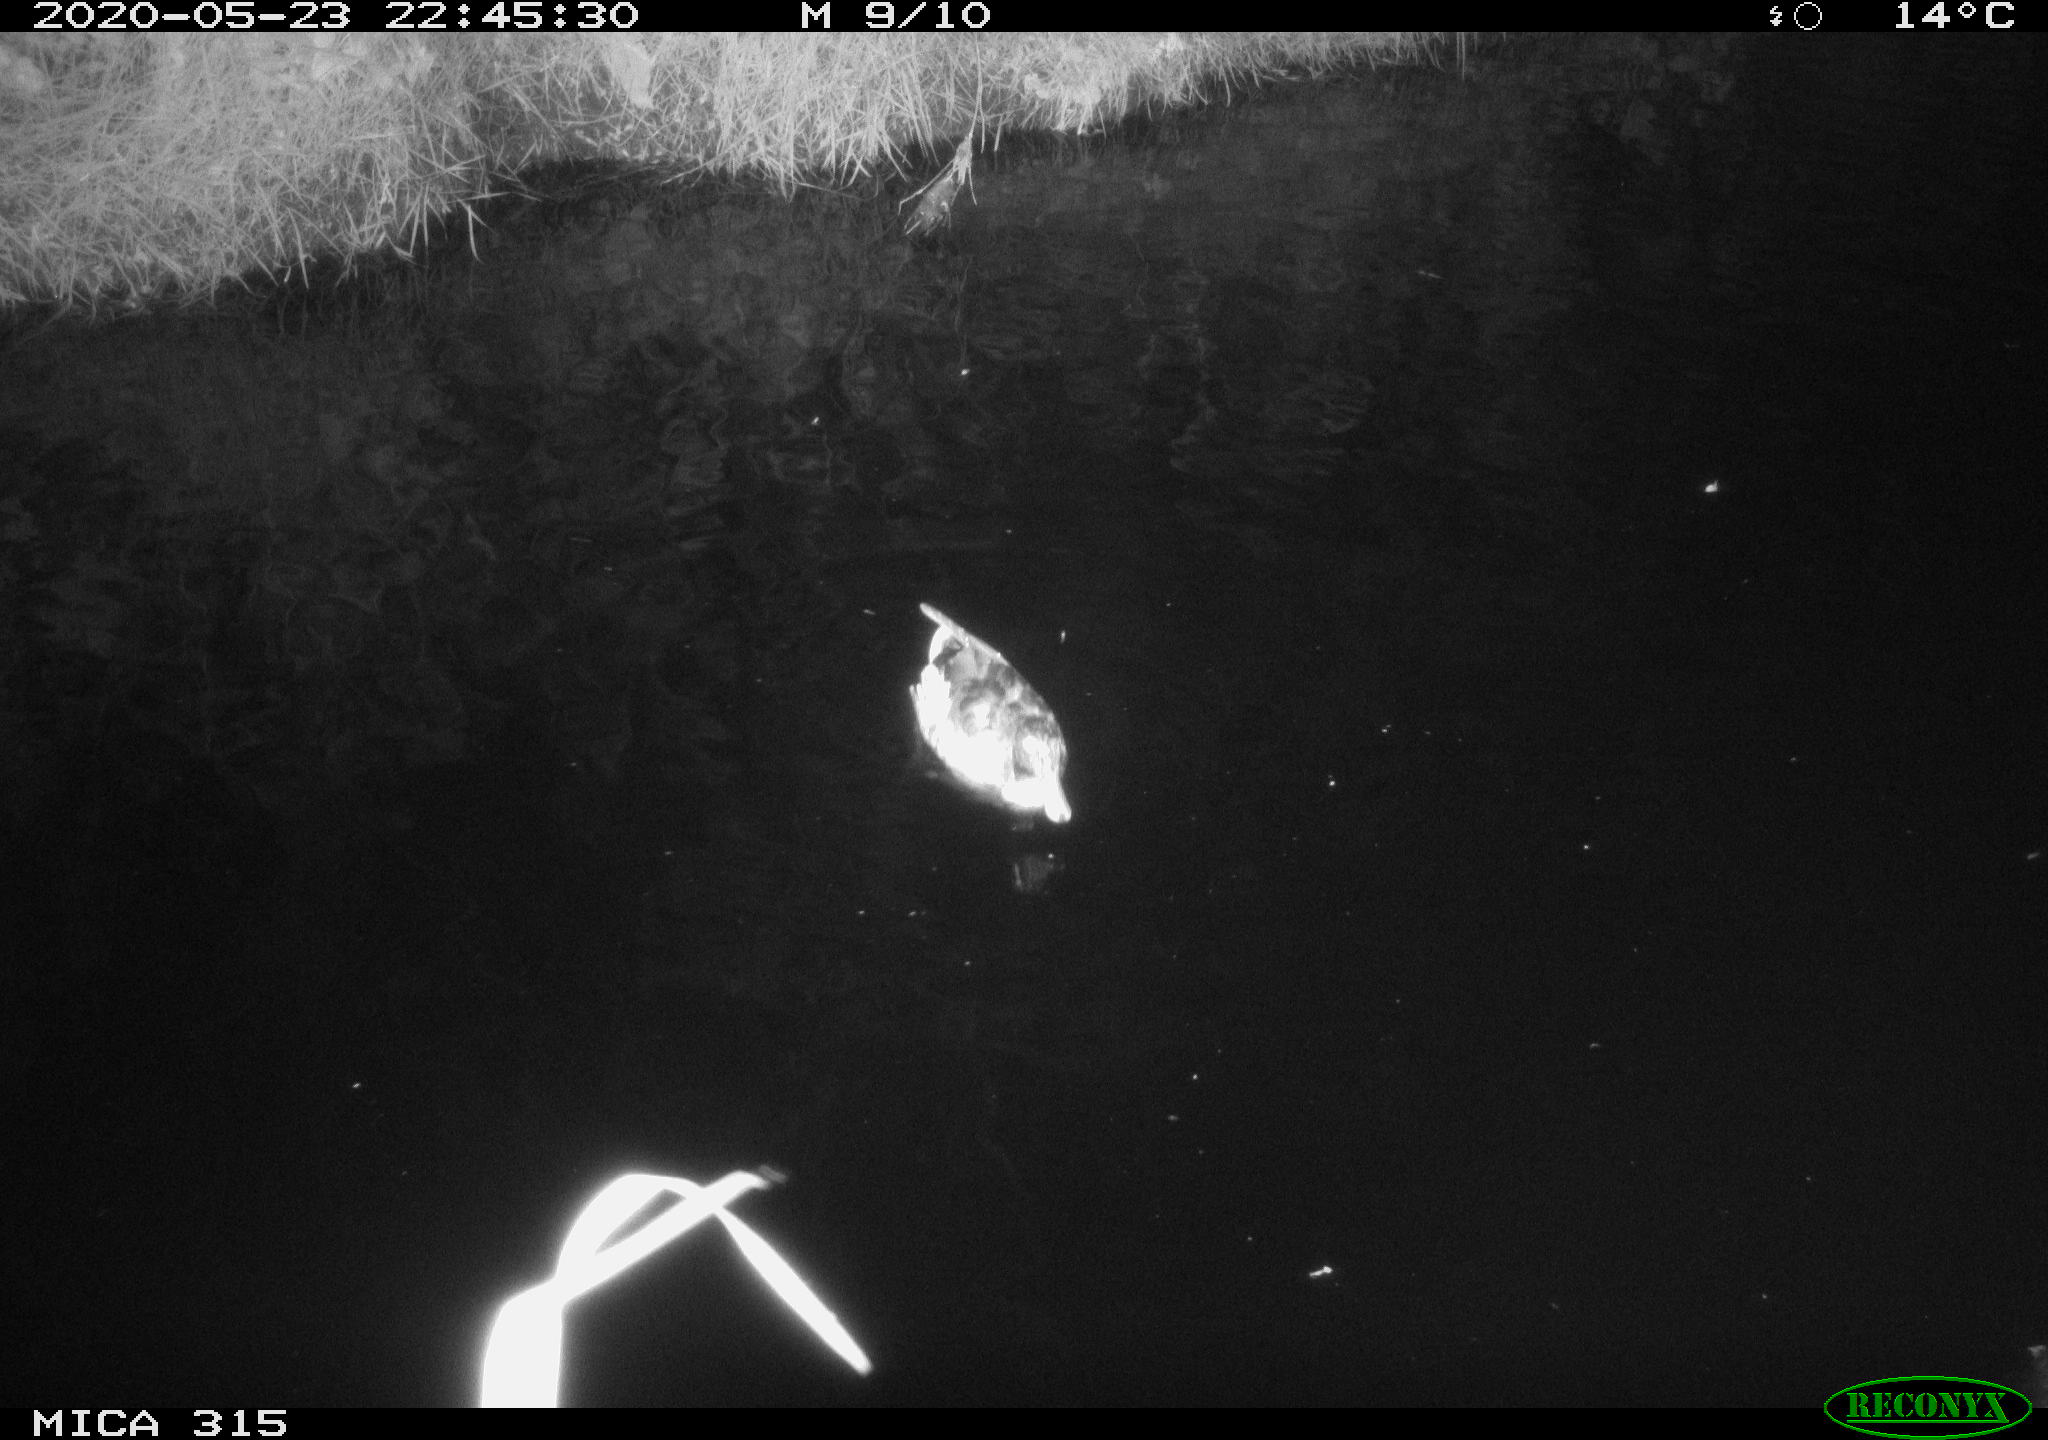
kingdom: Animalia
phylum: Chordata
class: Aves
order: Anseriformes
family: Anatidae
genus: Anas
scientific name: Anas platyrhynchos
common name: Mallard
